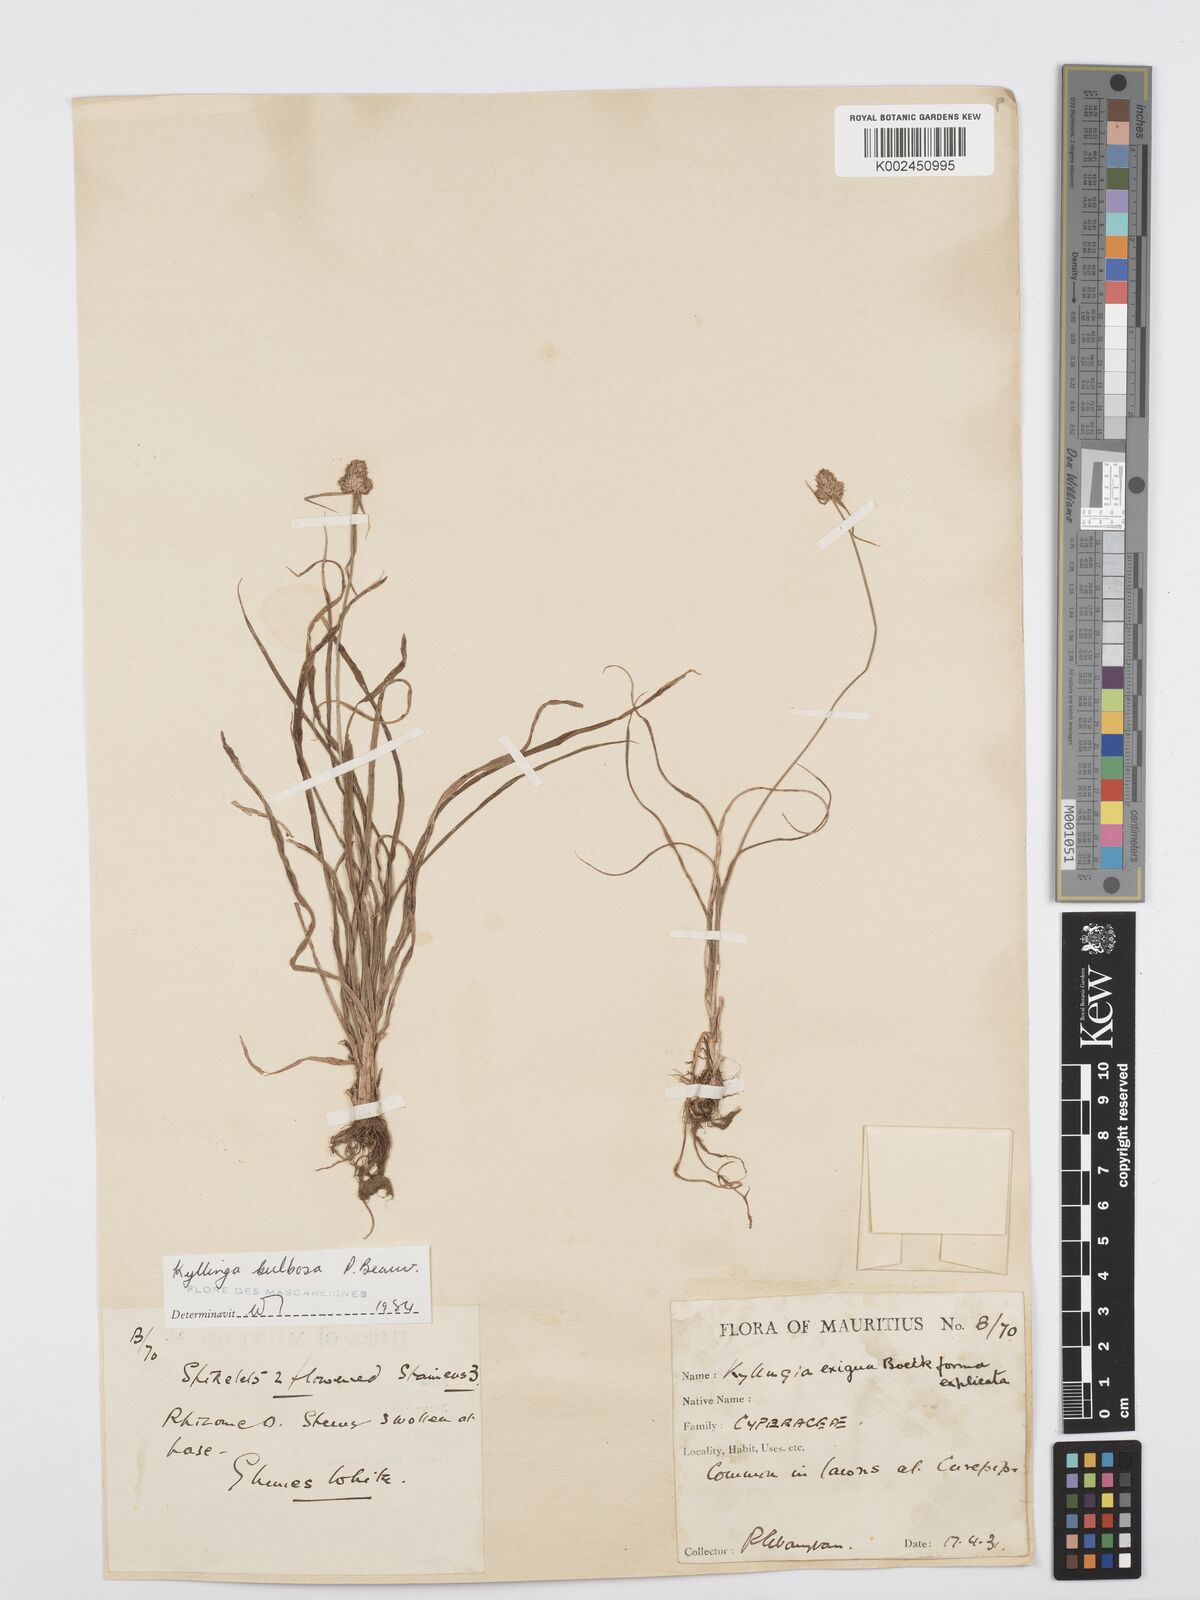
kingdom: Plantae
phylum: Tracheophyta
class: Liliopsida
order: Poales
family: Cyperaceae
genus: Cyperus
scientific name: Cyperus conglobatus
